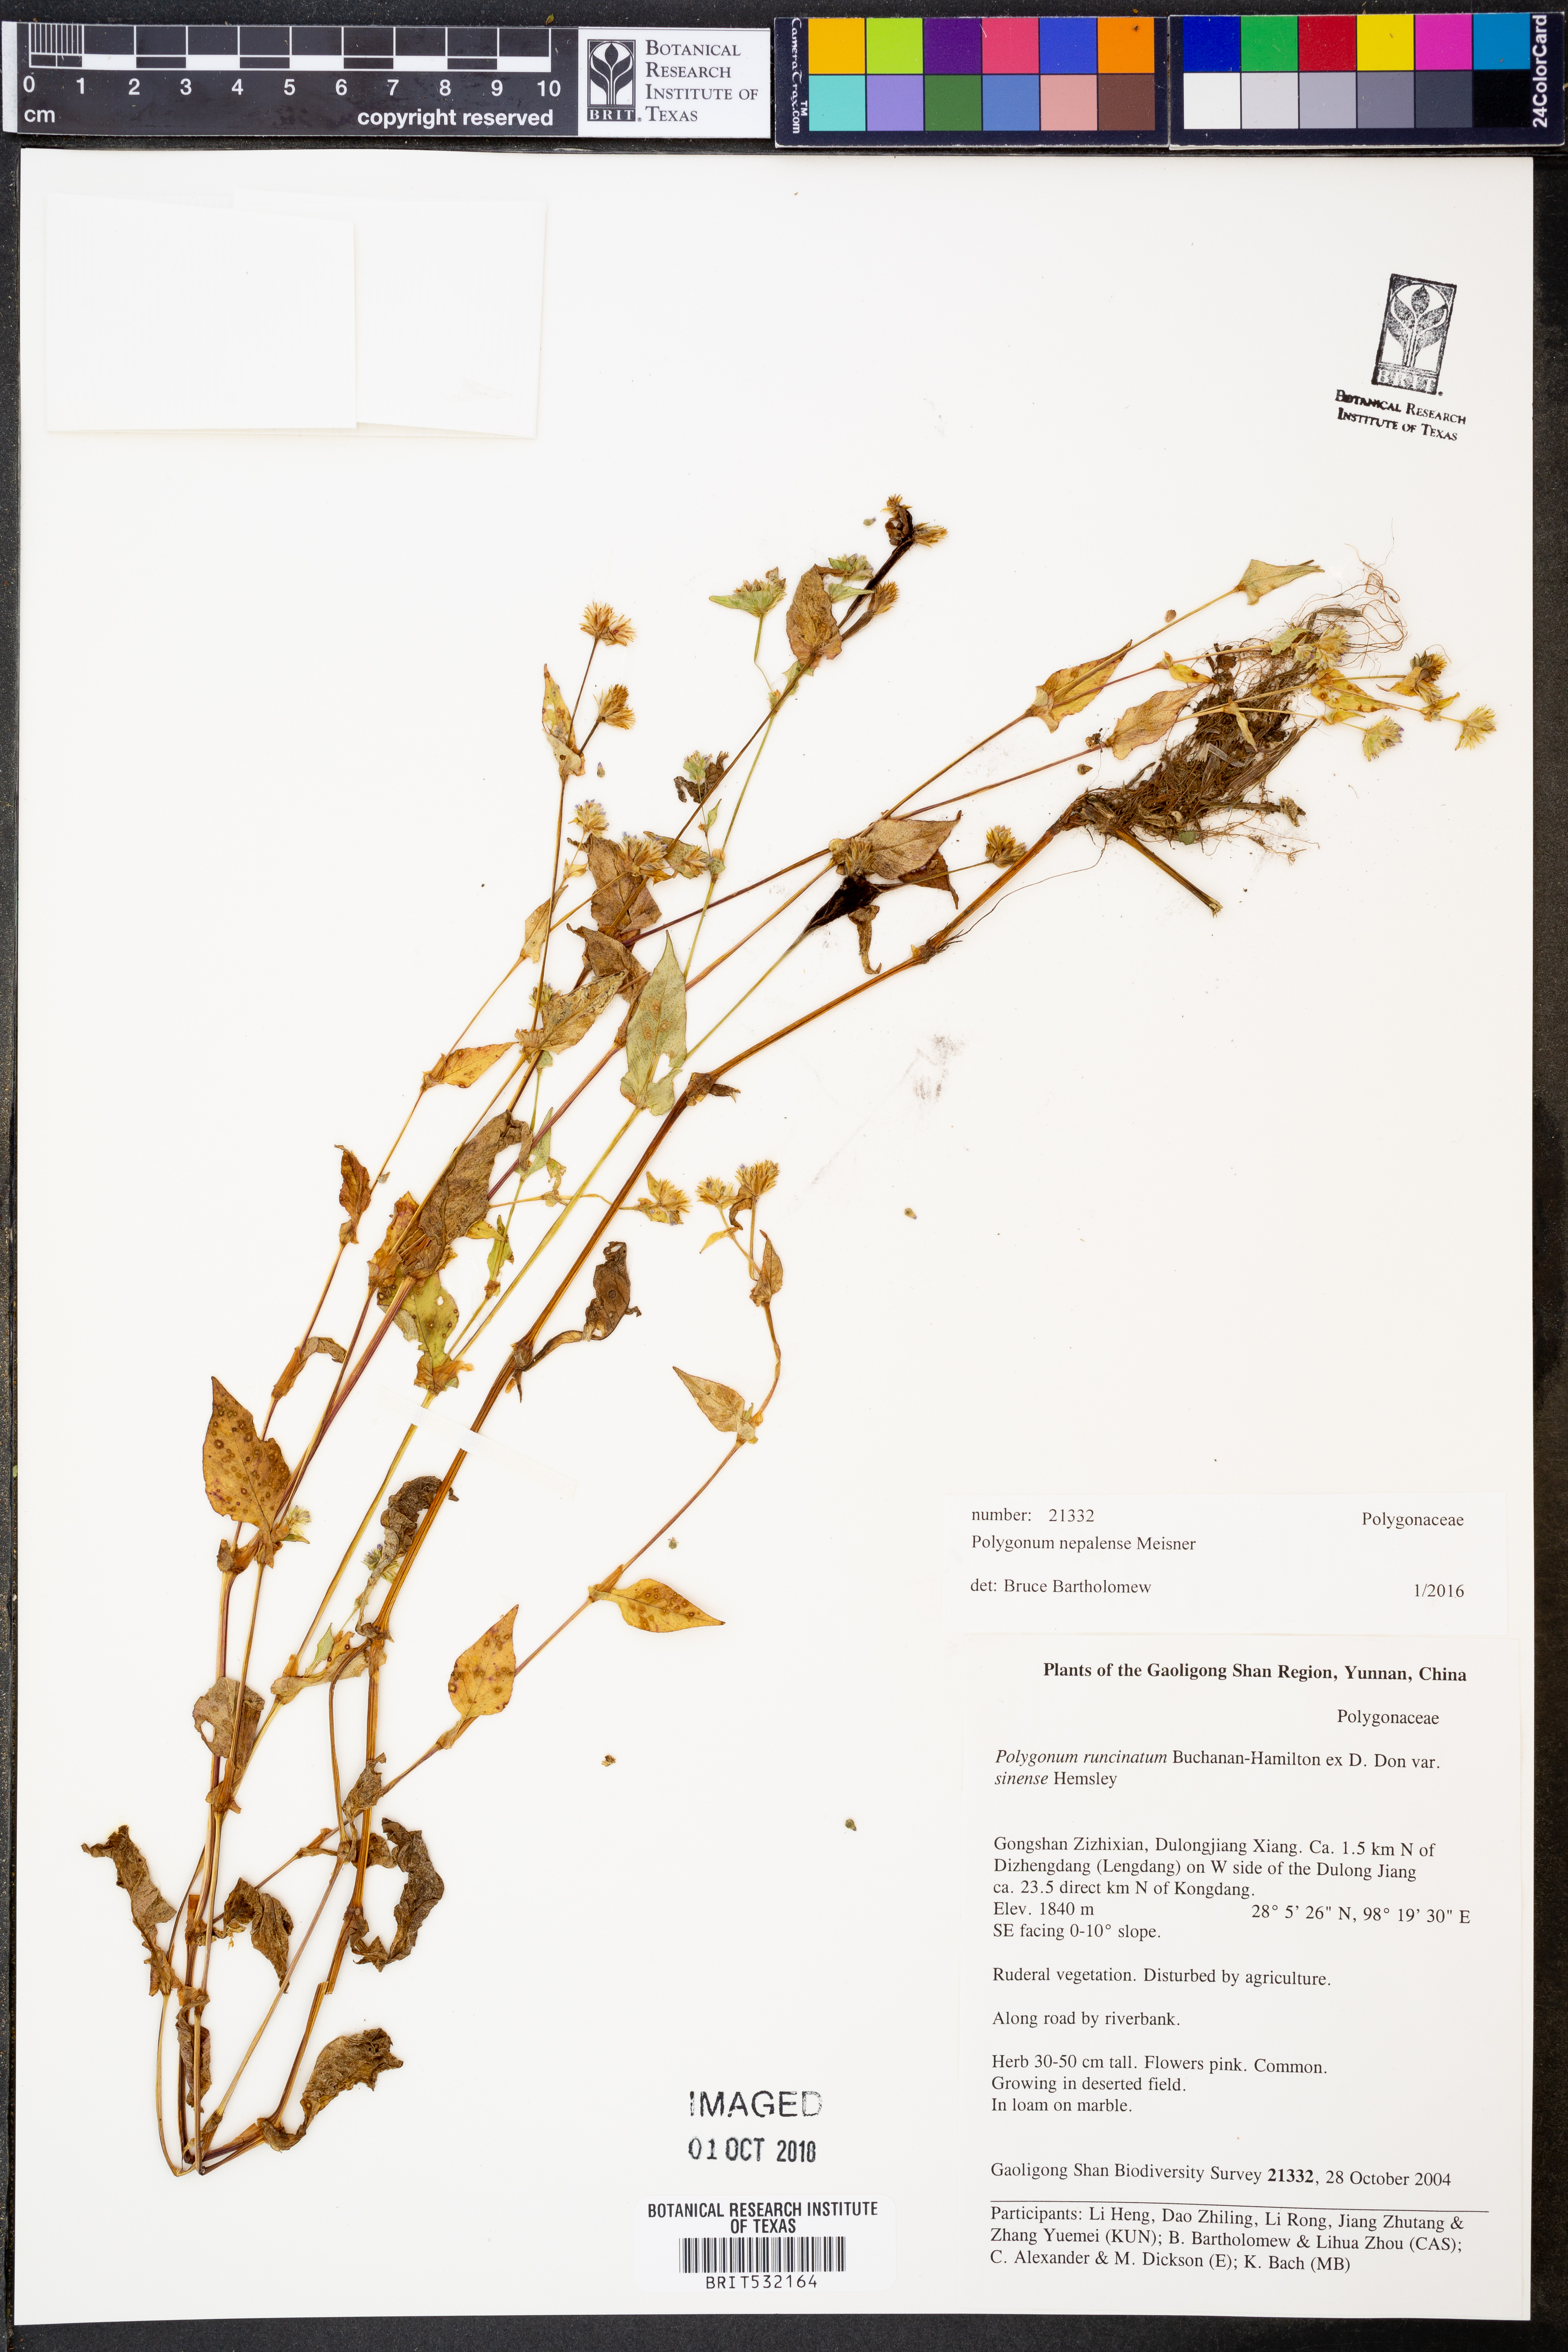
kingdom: Plantae
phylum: Tracheophyta
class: Magnoliopsida
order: Caryophyllales
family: Polygonaceae
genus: Persicaria
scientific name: Persicaria nepalensis
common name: Nepal persicaria
